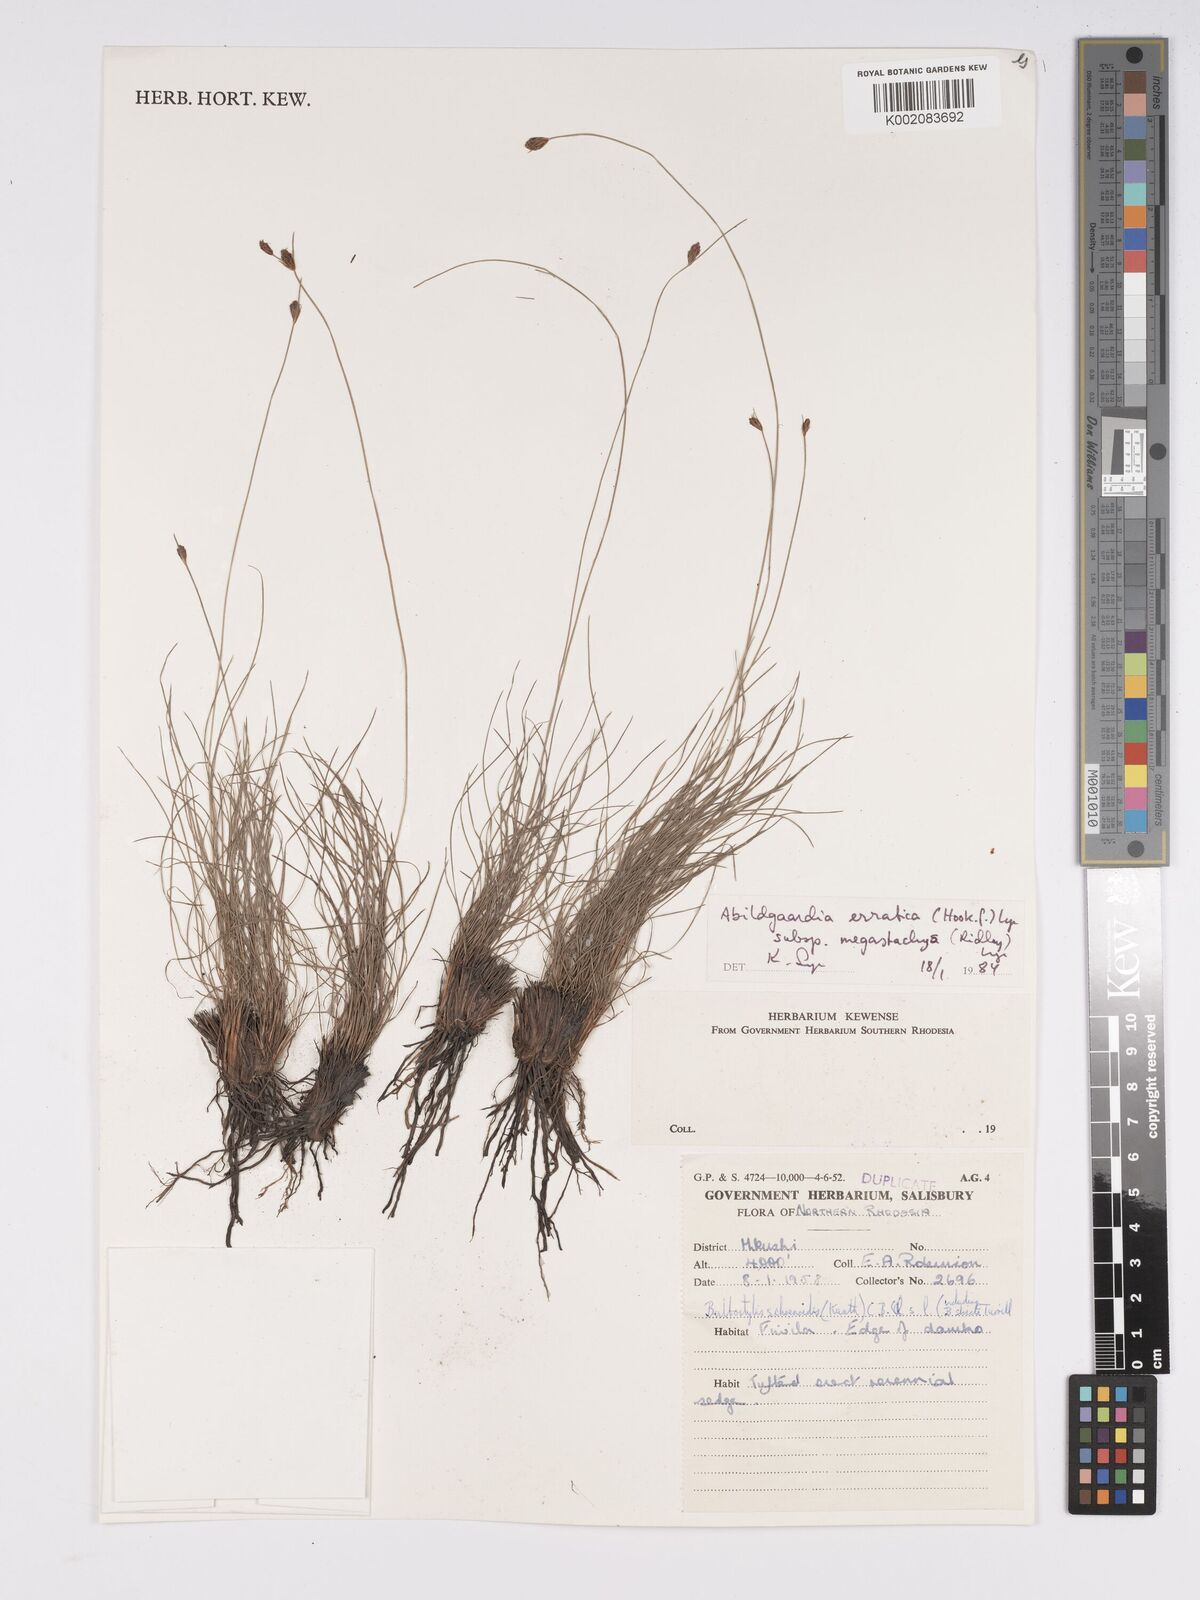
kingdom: Plantae
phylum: Tracheophyta
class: Liliopsida
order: Poales
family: Cyperaceae
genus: Bulbostylis
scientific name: Bulbostylis schoenoides
